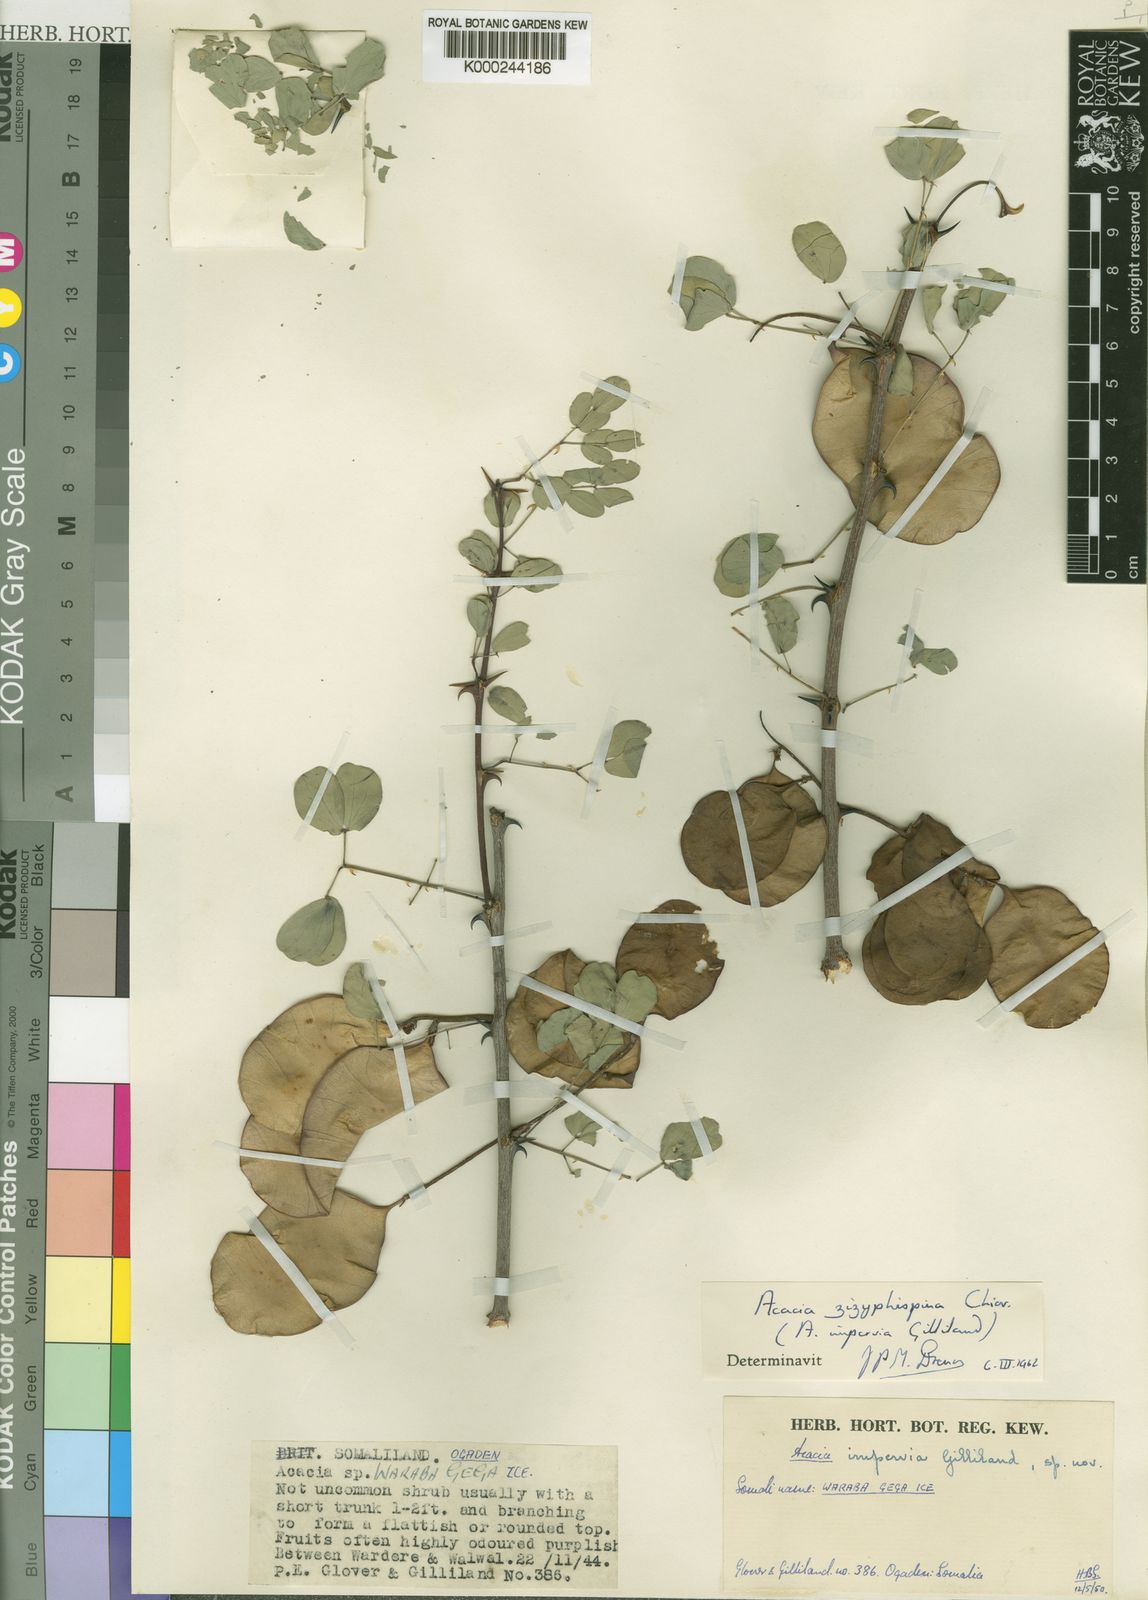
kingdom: Plantae
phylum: Tracheophyta
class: Magnoliopsida
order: Fabales
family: Fabaceae
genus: Senegalia
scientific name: Senegalia zizyphispina
